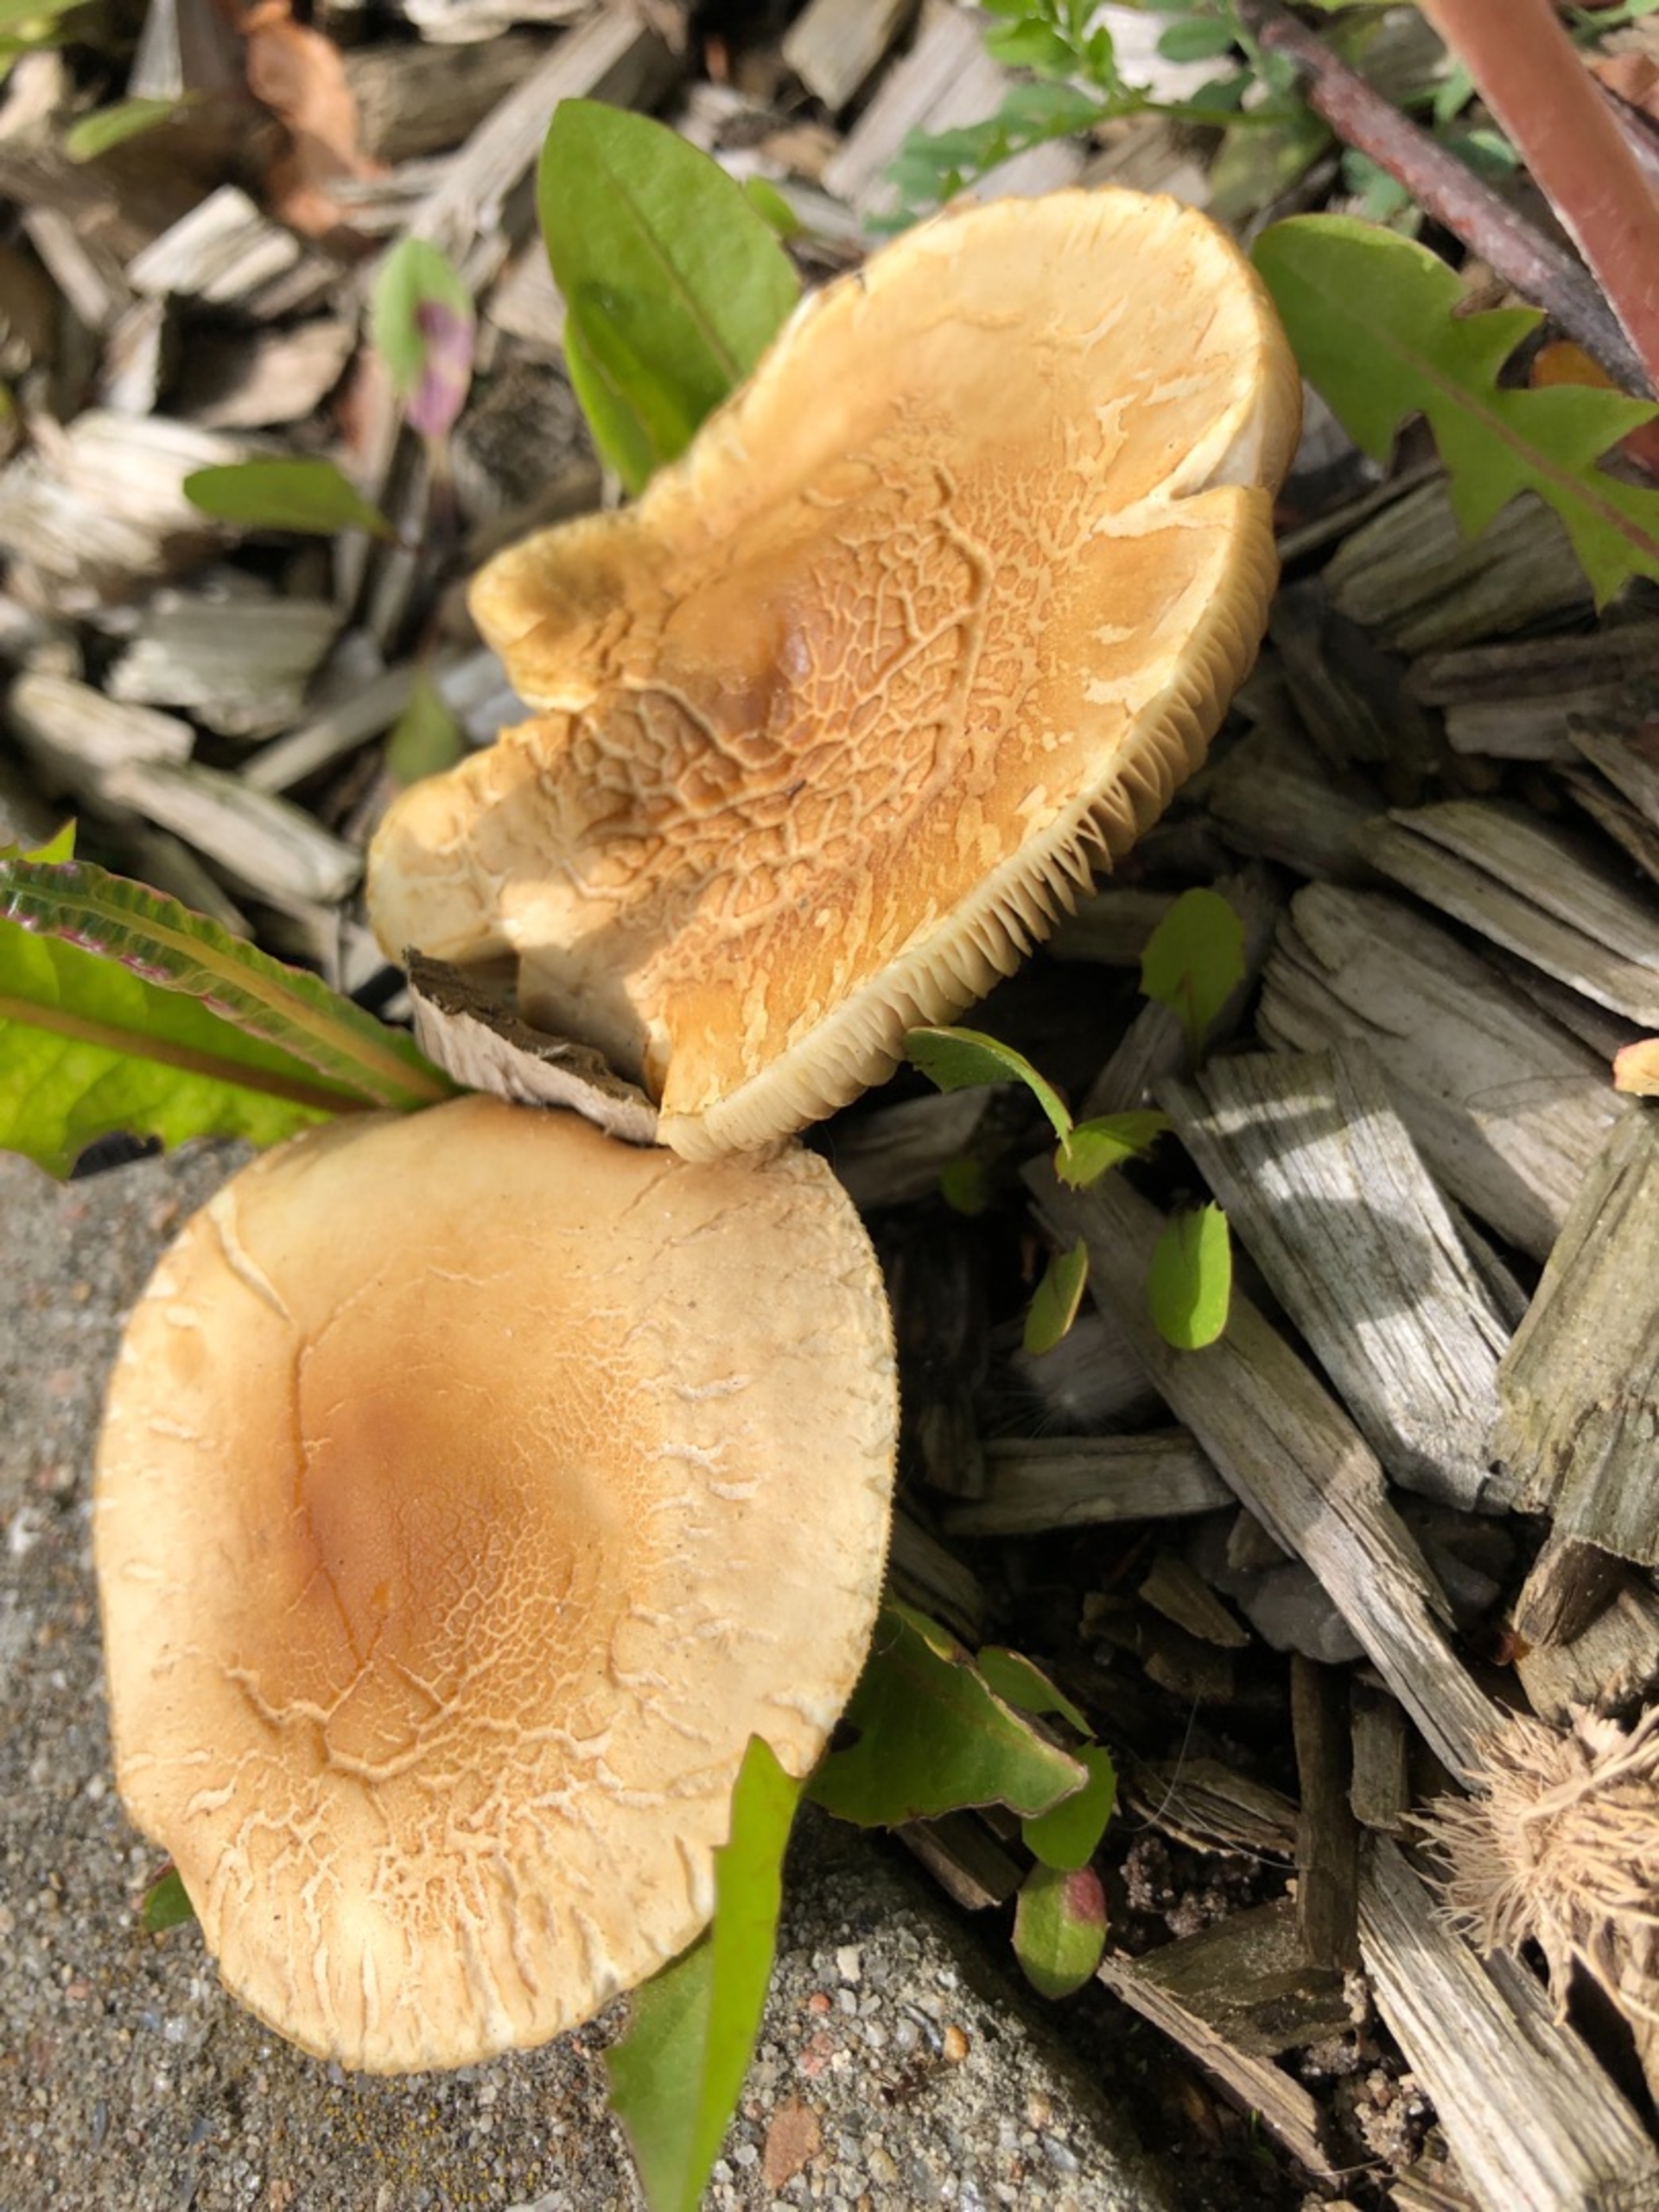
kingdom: Fungi
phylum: Basidiomycota
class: Agaricomycetes
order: Agaricales
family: Strophariaceae
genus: Agrocybe
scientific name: Agrocybe praecox
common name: Tidlig agerhat
